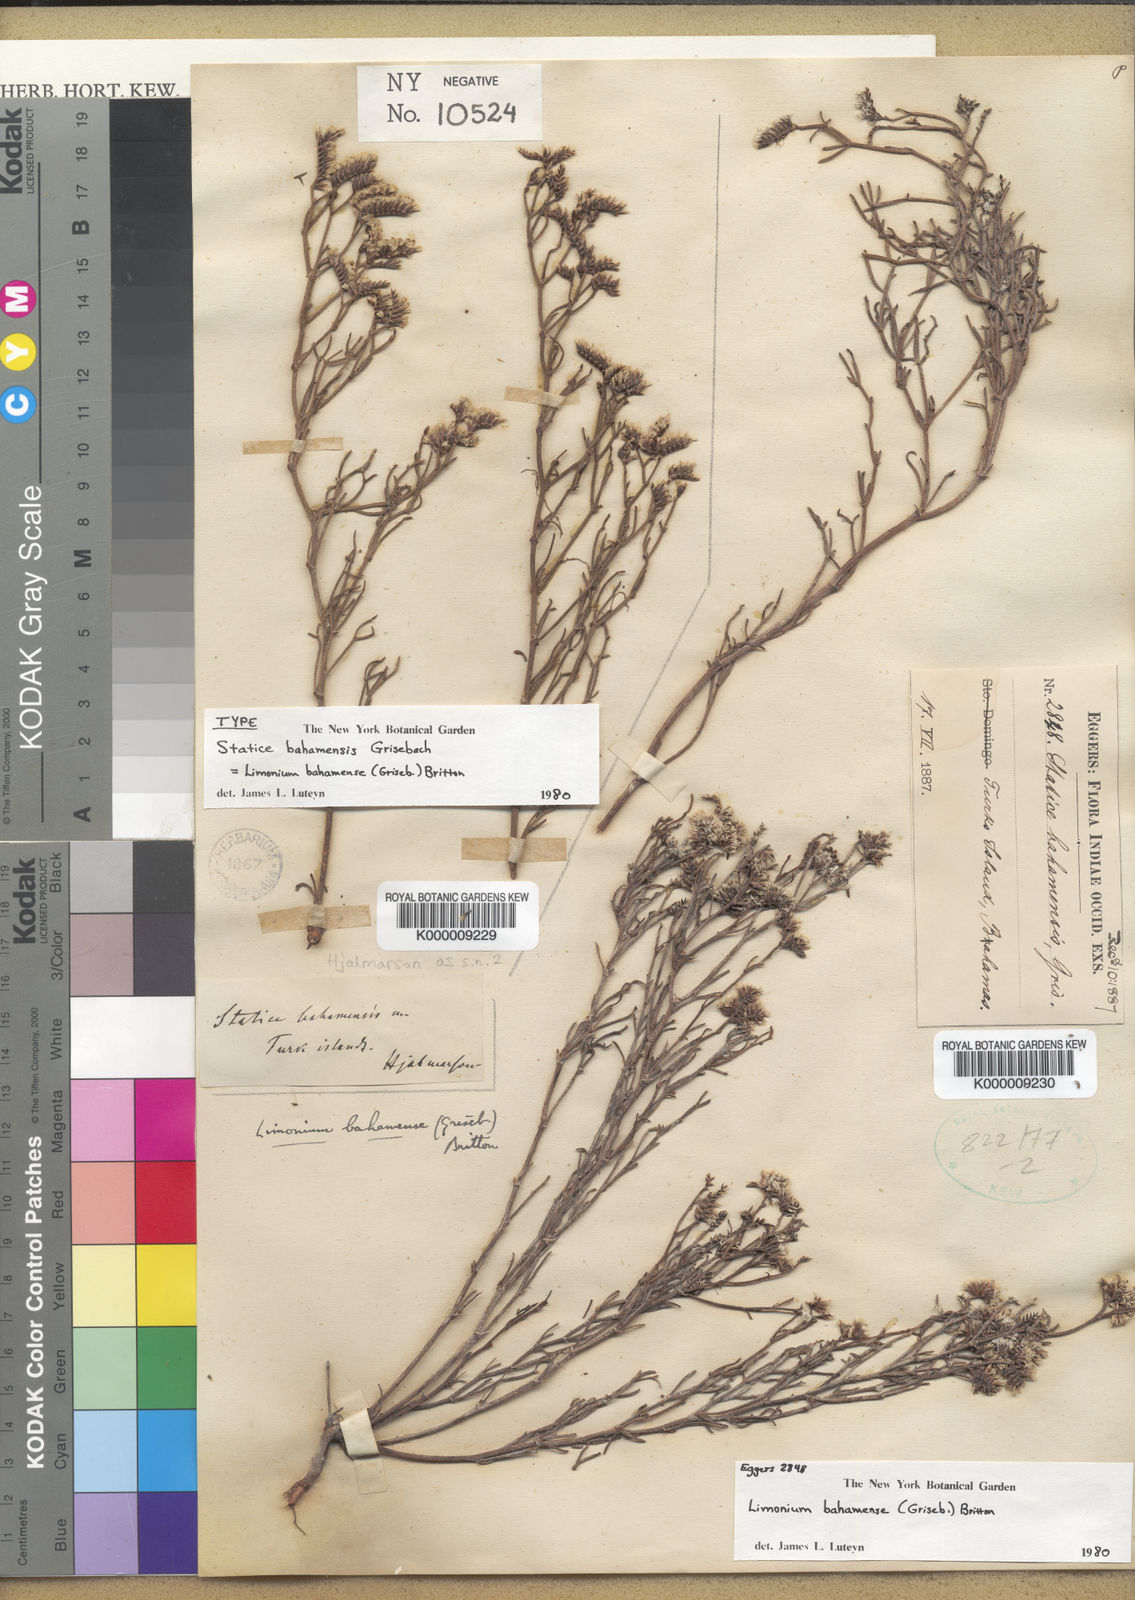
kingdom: Plantae
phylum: Tracheophyta
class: Magnoliopsida
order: Caryophyllales
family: Plumbaginaceae
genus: Limonium
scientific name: Limonium bahamense
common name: Heather
